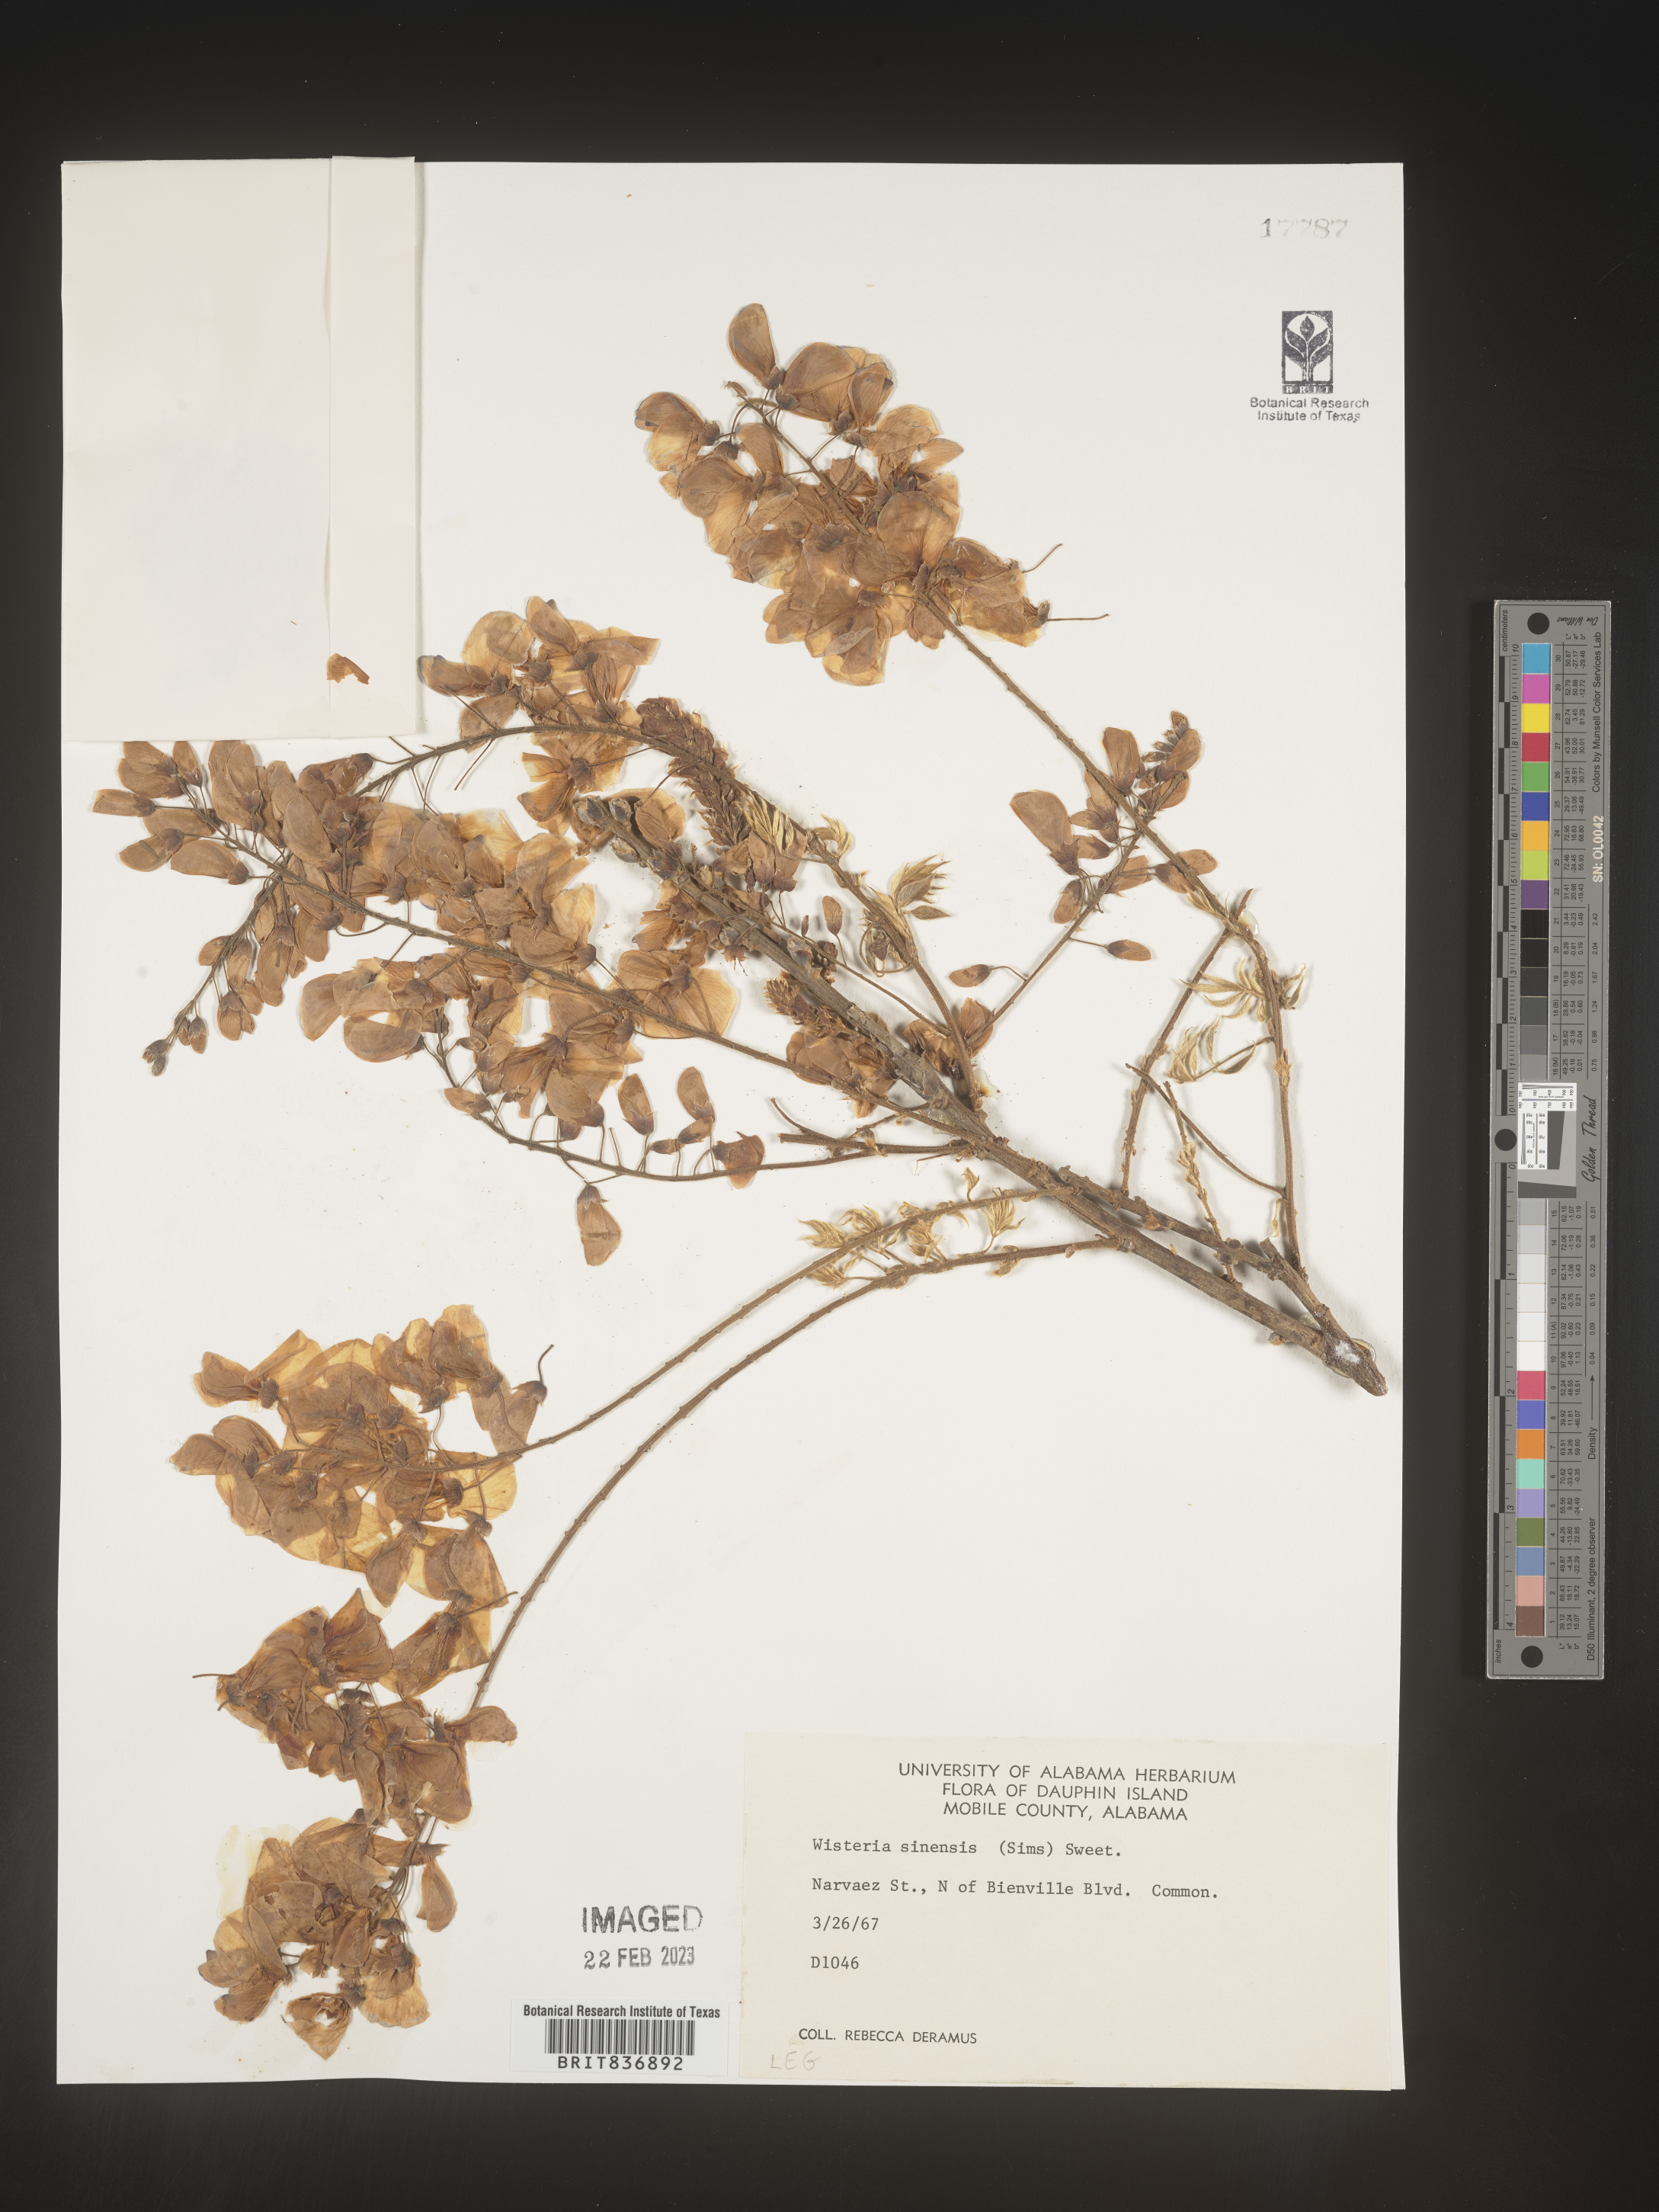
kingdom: Plantae
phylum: Tracheophyta
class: Magnoliopsida
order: Fabales
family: Fabaceae
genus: Wisteria
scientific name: Wisteria sinensis
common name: Chinese wisteria
